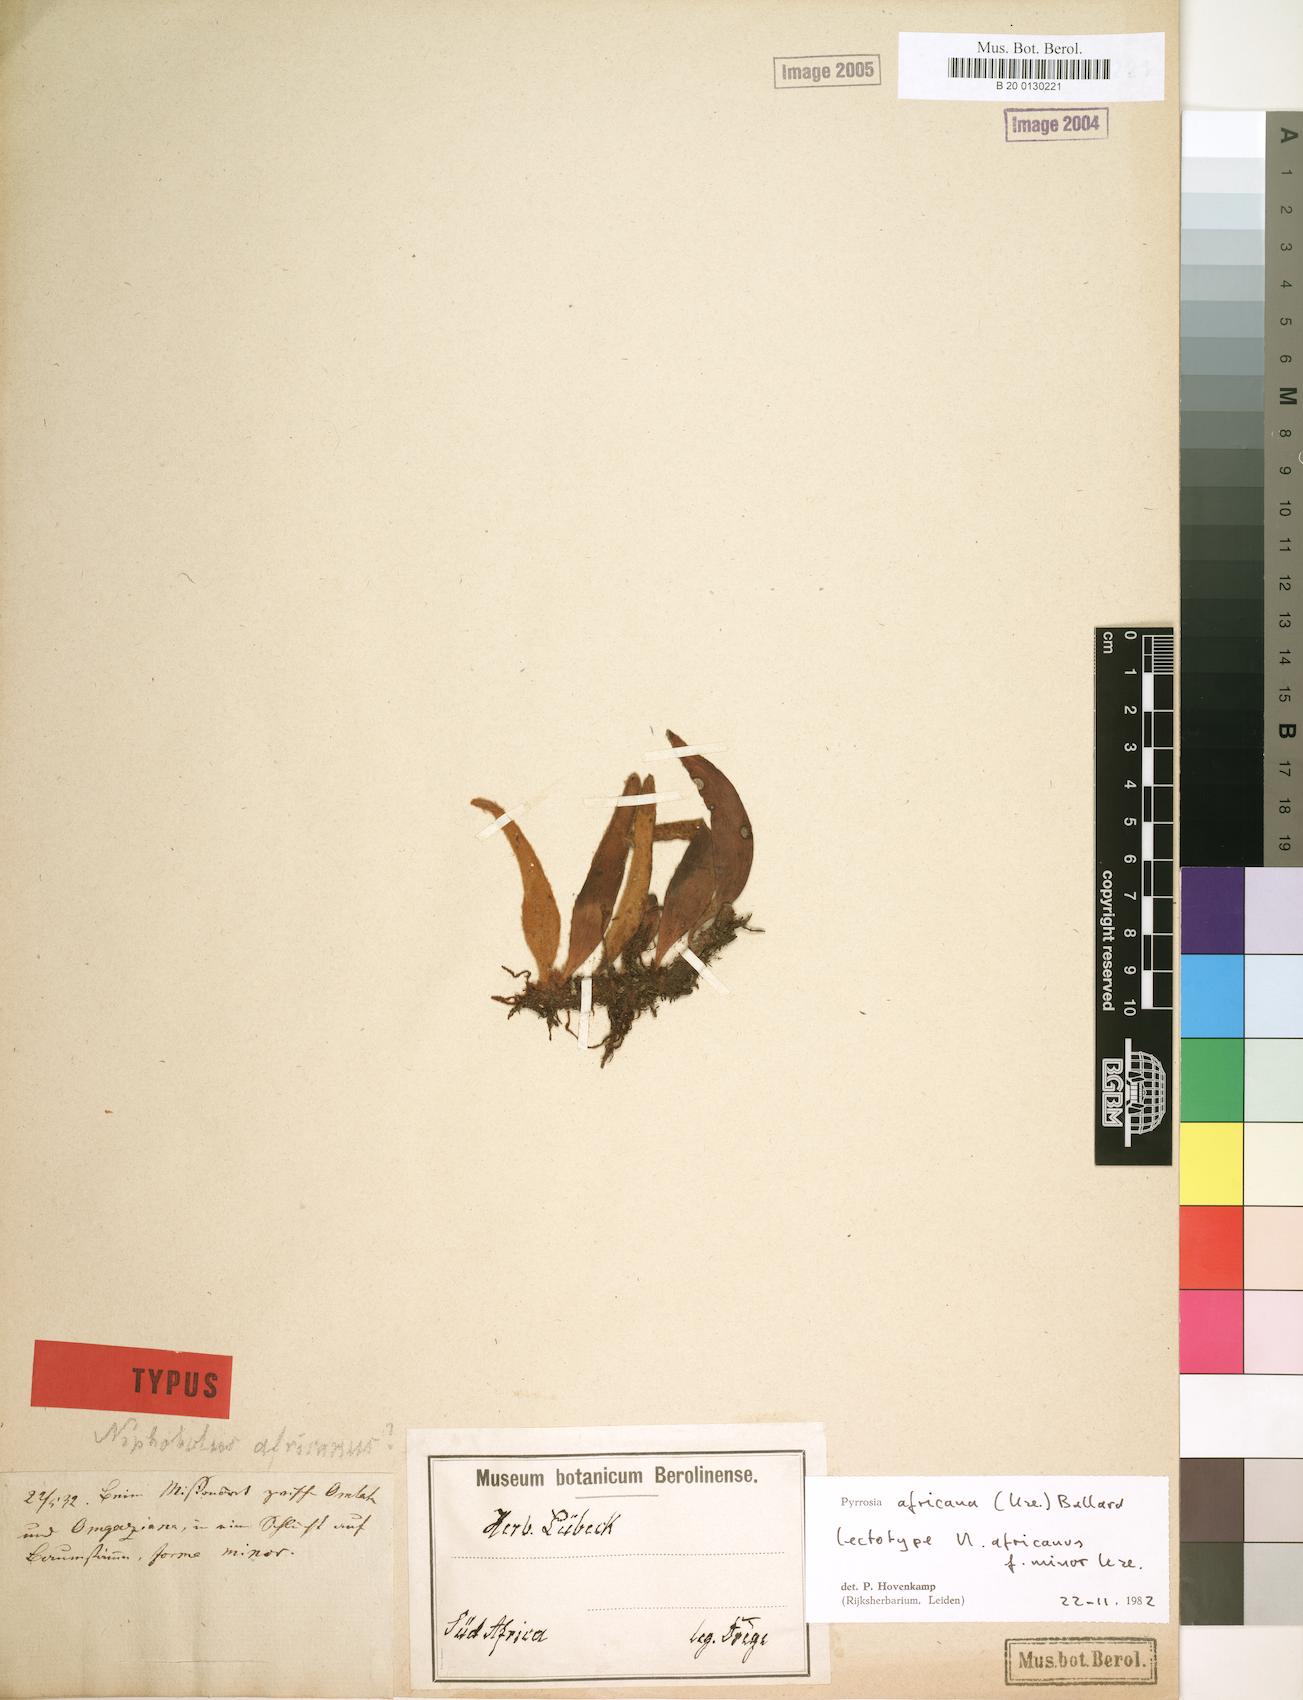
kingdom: Plantae
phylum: Tracheophyta
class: Polypodiopsida
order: Polypodiales
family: Polypodiaceae
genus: Hovenkampia
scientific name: Hovenkampia africana
